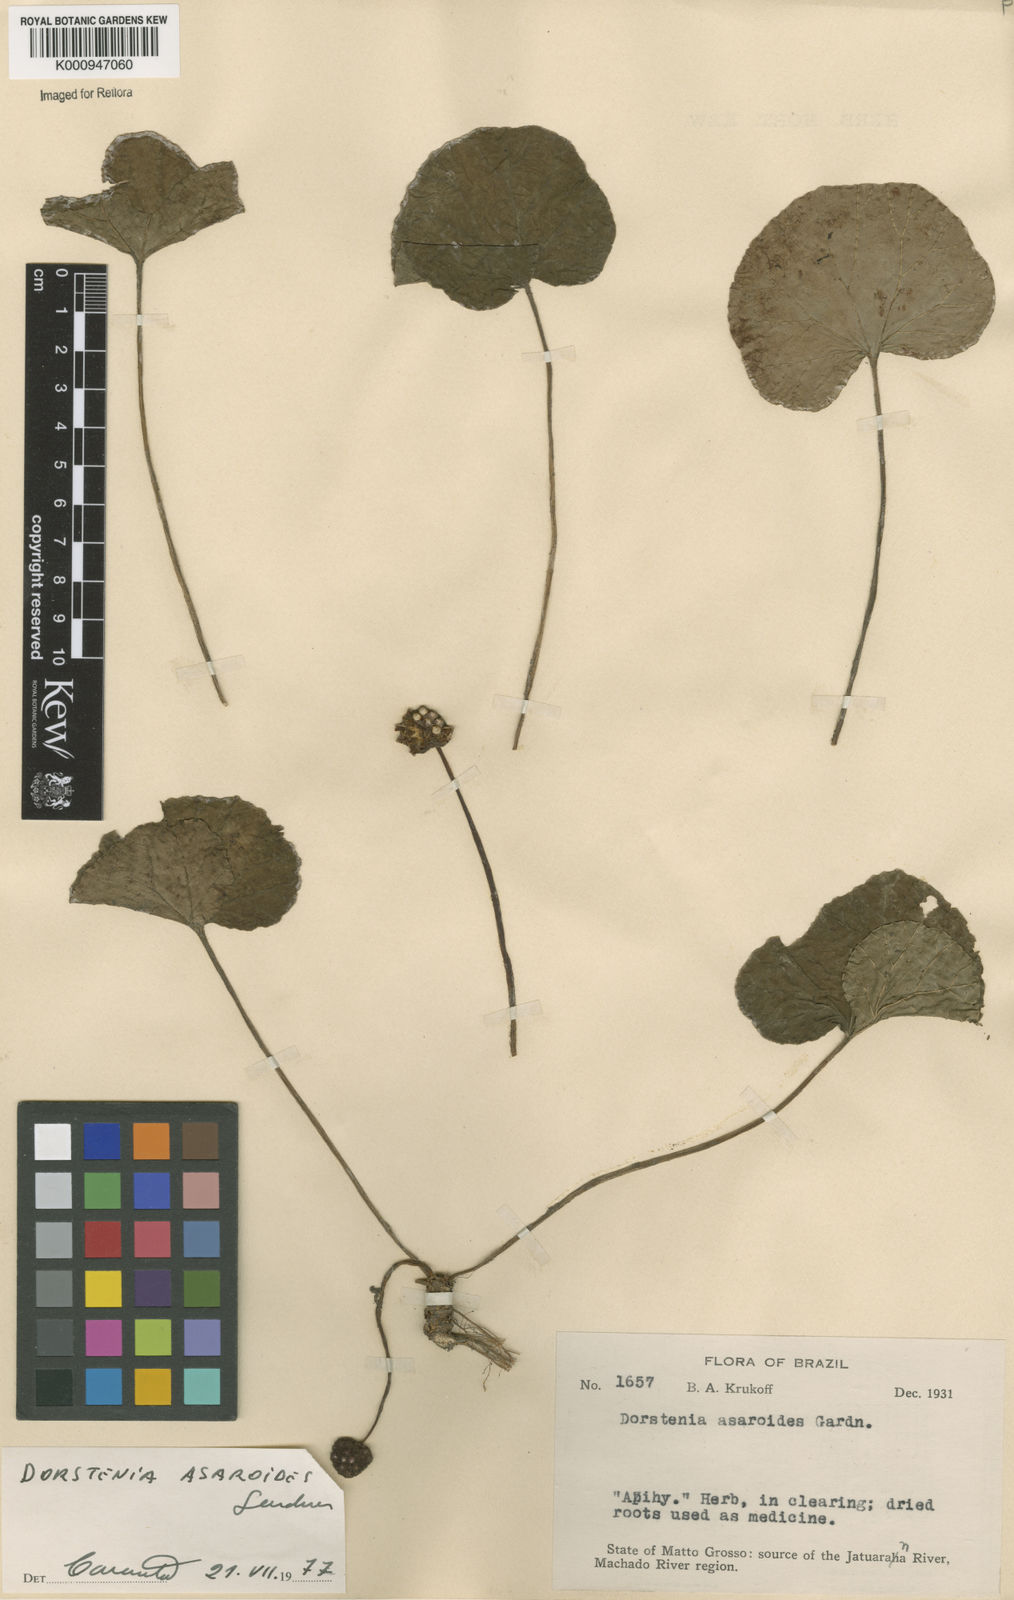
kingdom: Plantae
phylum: Tracheophyta
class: Magnoliopsida
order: Rosales
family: Moraceae
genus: Dorstenia
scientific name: Dorstenia
